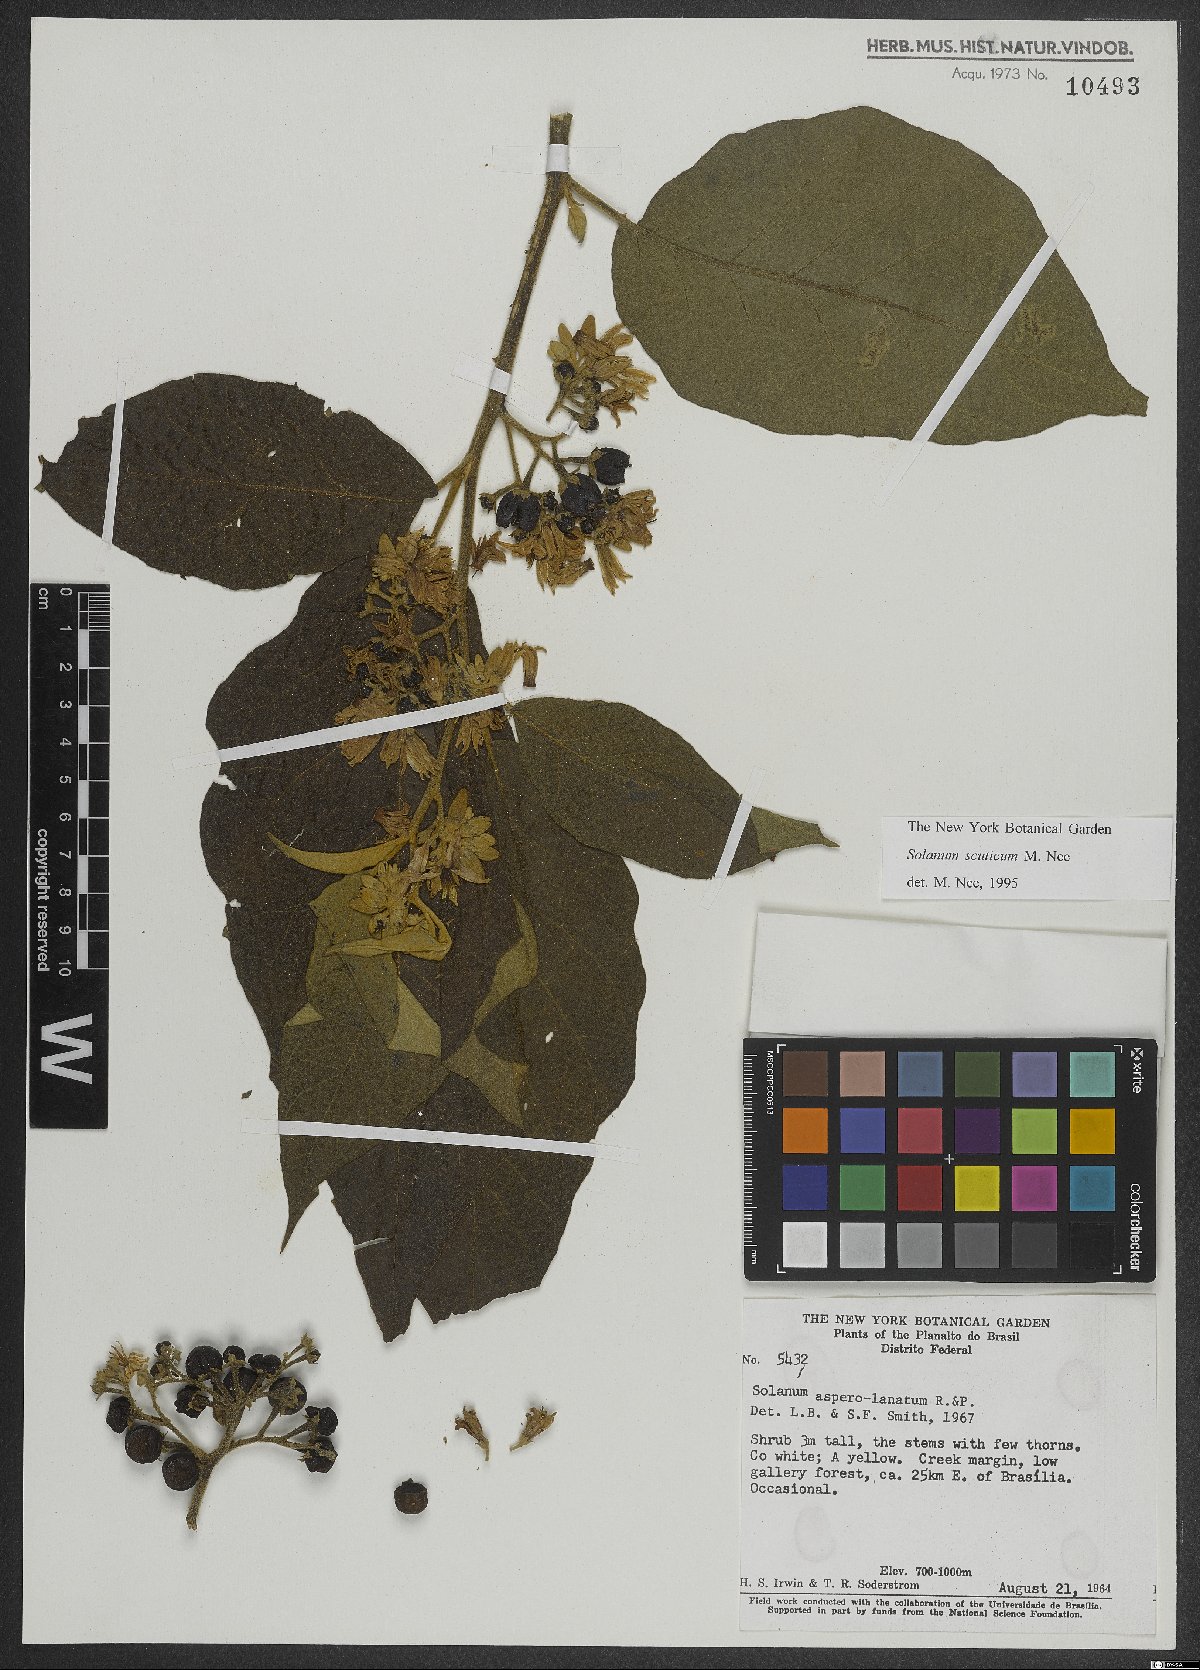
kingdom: Plantae
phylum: Tracheophyta
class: Magnoliopsida
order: Solanales
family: Solanaceae
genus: Solanum
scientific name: Solanum scuticum
